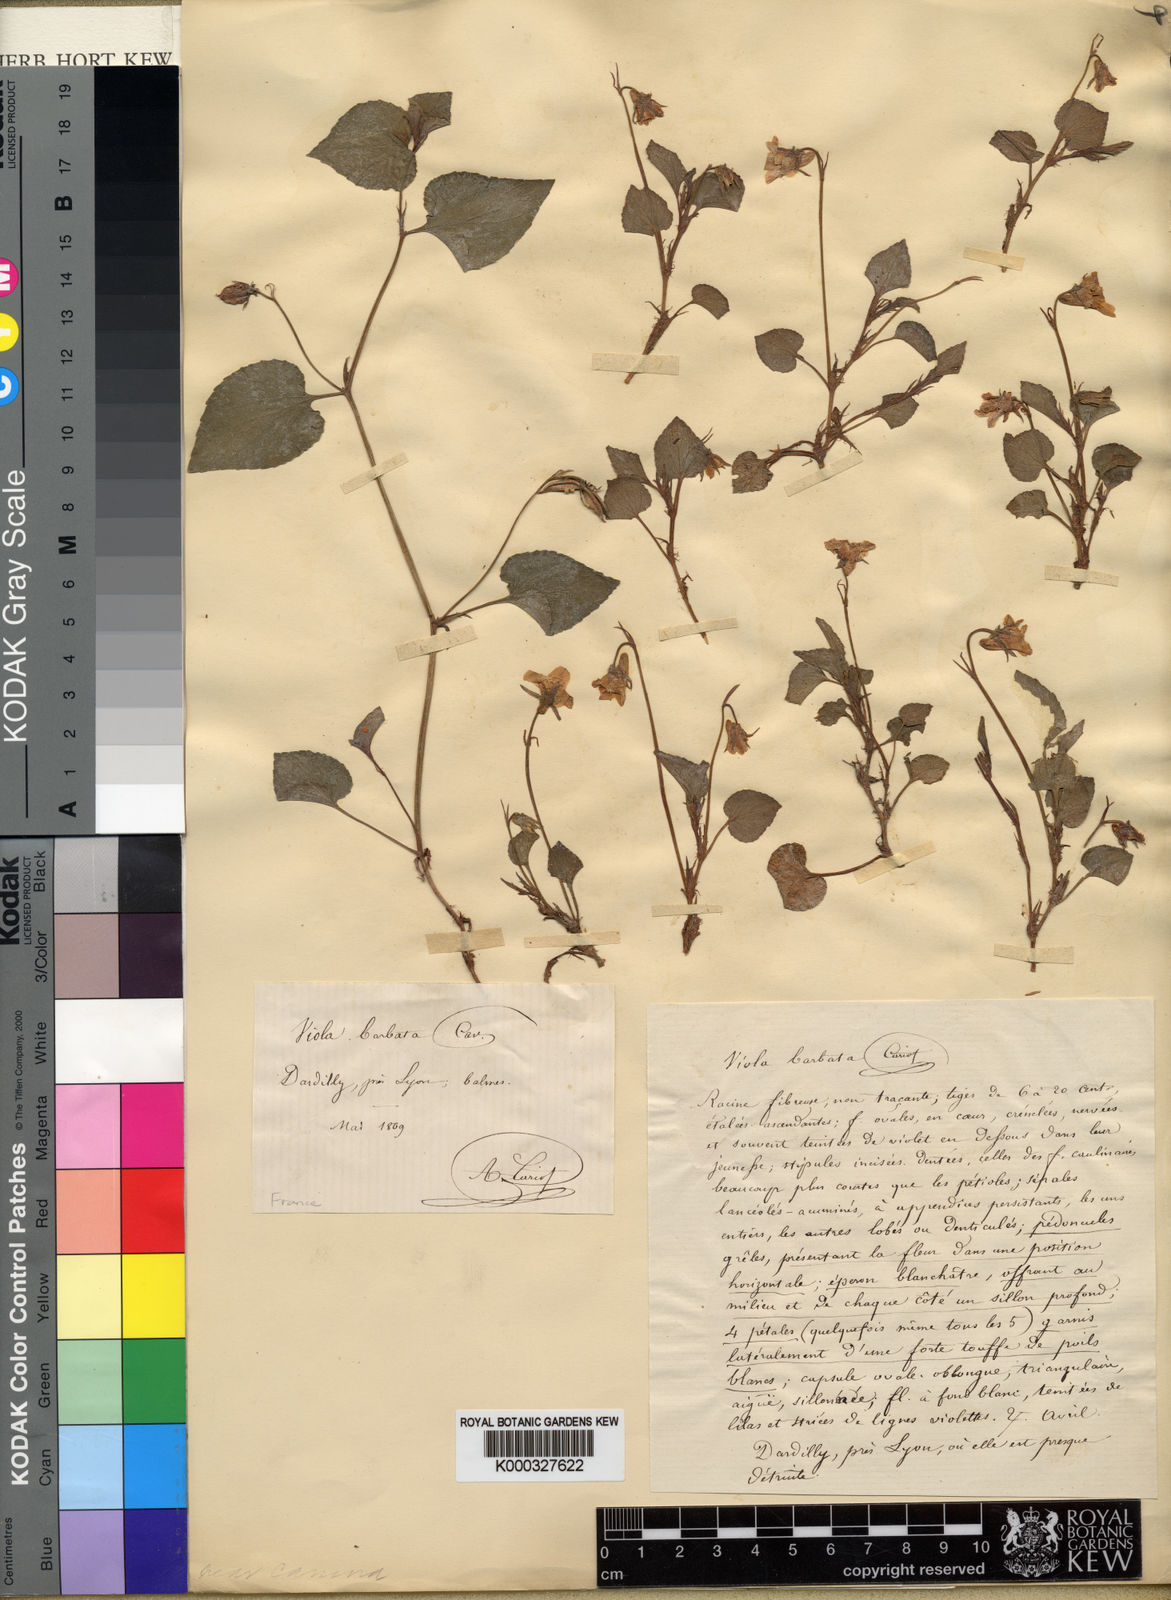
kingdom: Plantae
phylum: Tracheophyta
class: Magnoliopsida
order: Malpighiales
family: Violaceae
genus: Viola
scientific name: Viola riviniana
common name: Common dog-violet
